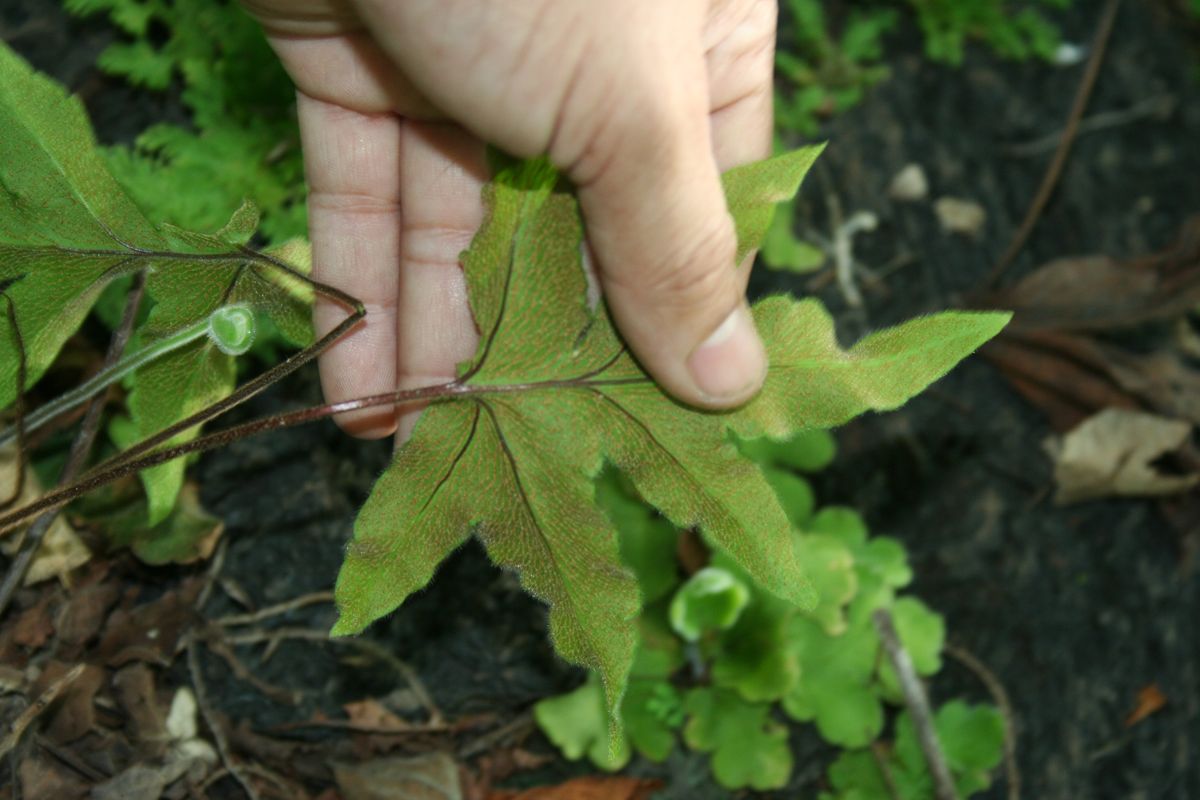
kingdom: Plantae
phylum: Tracheophyta
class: Polypodiopsida
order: Polypodiales
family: Pteridaceae
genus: Hemionitis
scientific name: Hemionitis pinnatifida
